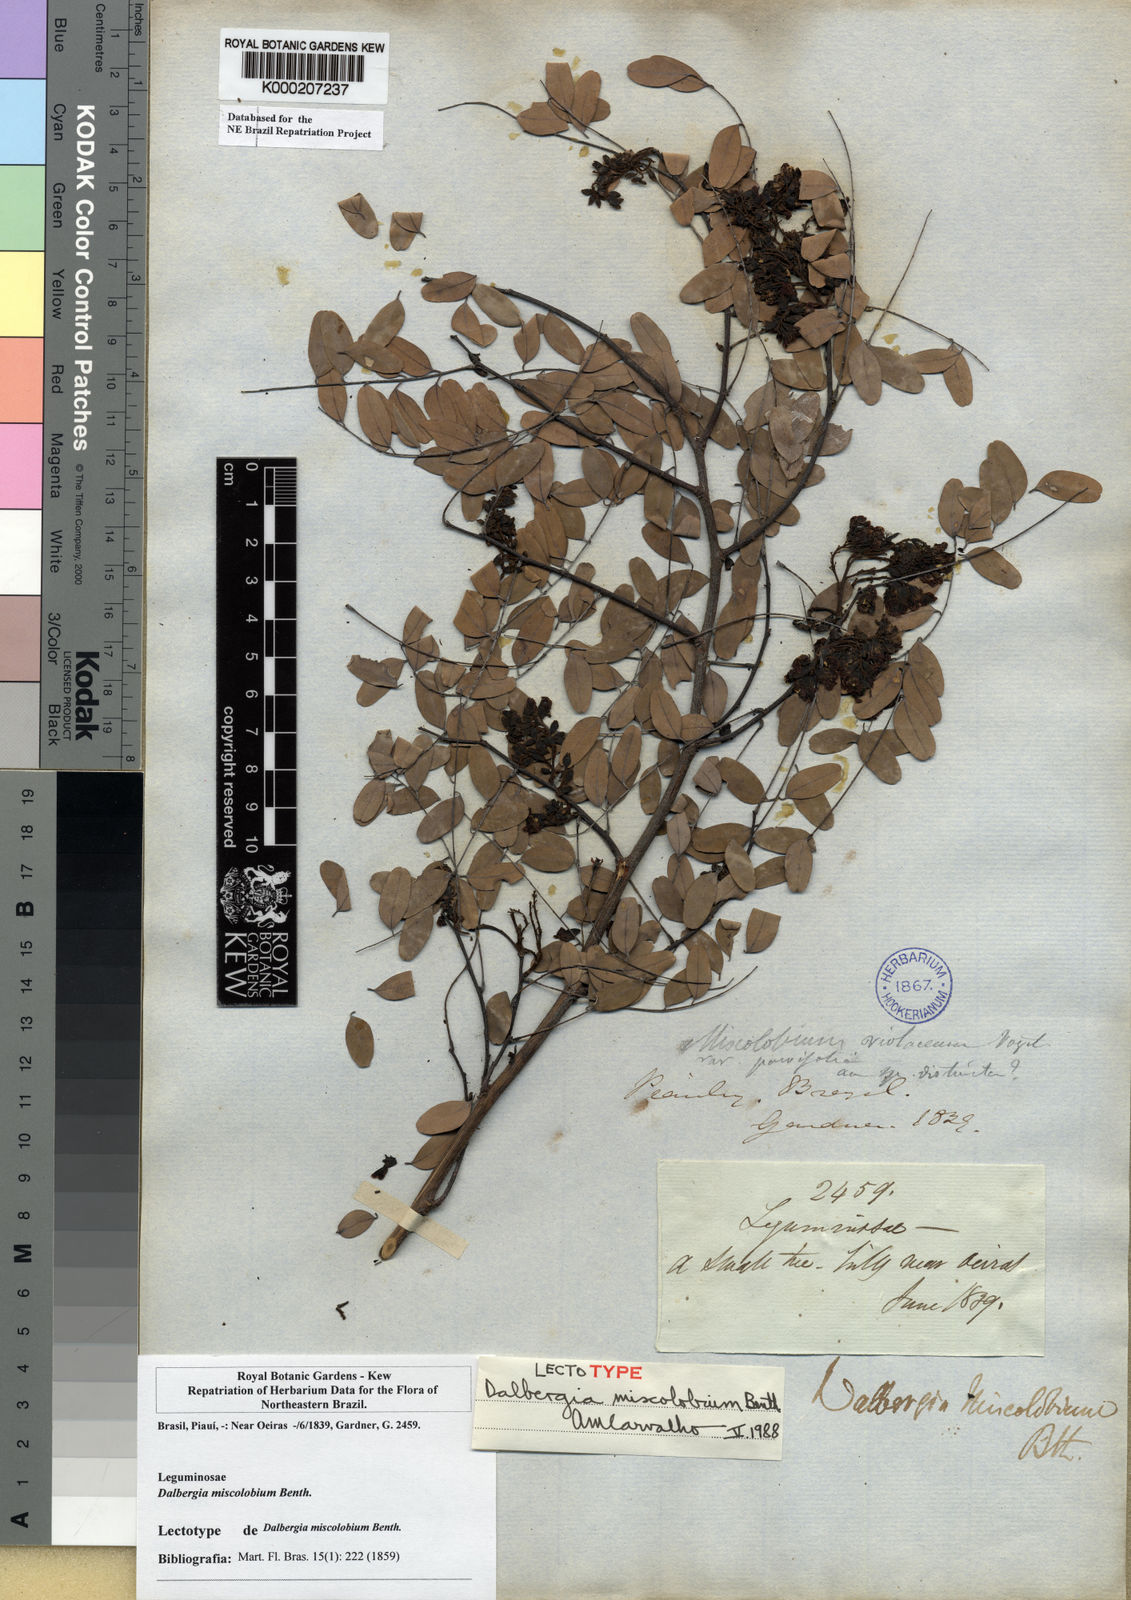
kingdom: Plantae
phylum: Tracheophyta
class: Magnoliopsida
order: Fabales
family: Fabaceae
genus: Dalbergia
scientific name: Dalbergia miscolobium
